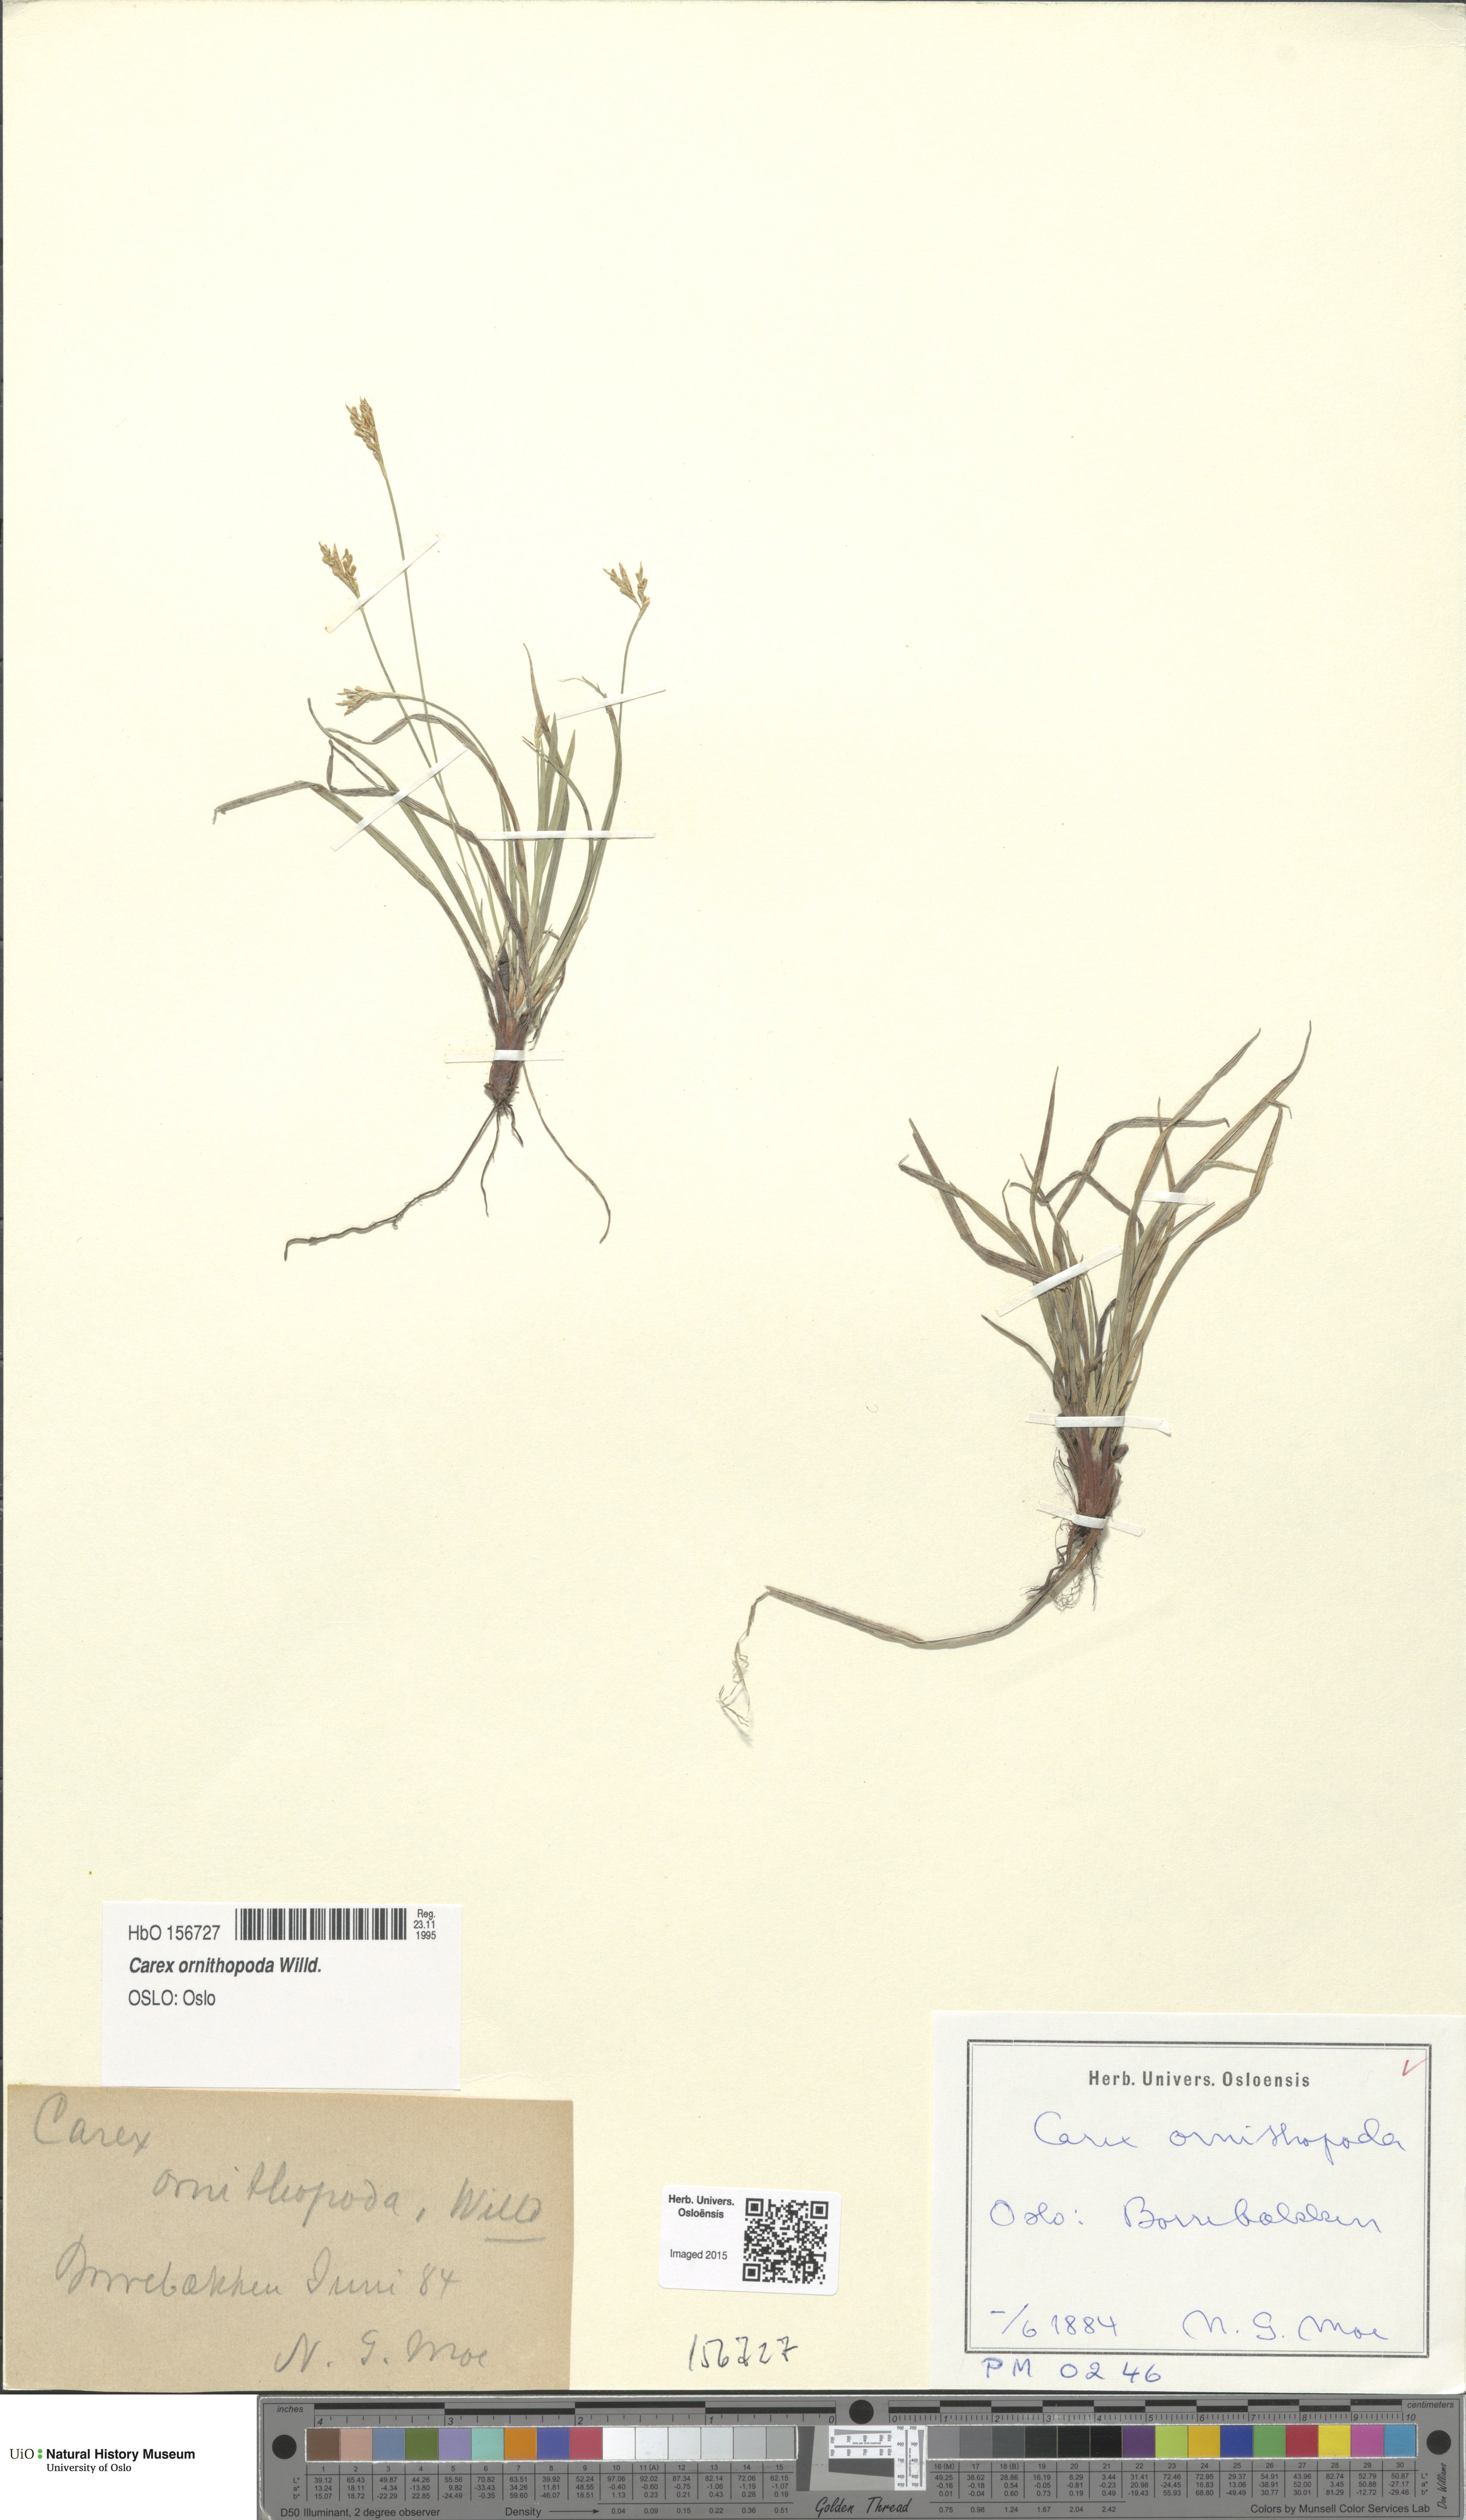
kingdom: Plantae
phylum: Tracheophyta
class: Liliopsida
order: Poales
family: Cyperaceae
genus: Carex
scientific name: Carex ornithopoda
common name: Bird's-foot sedge
